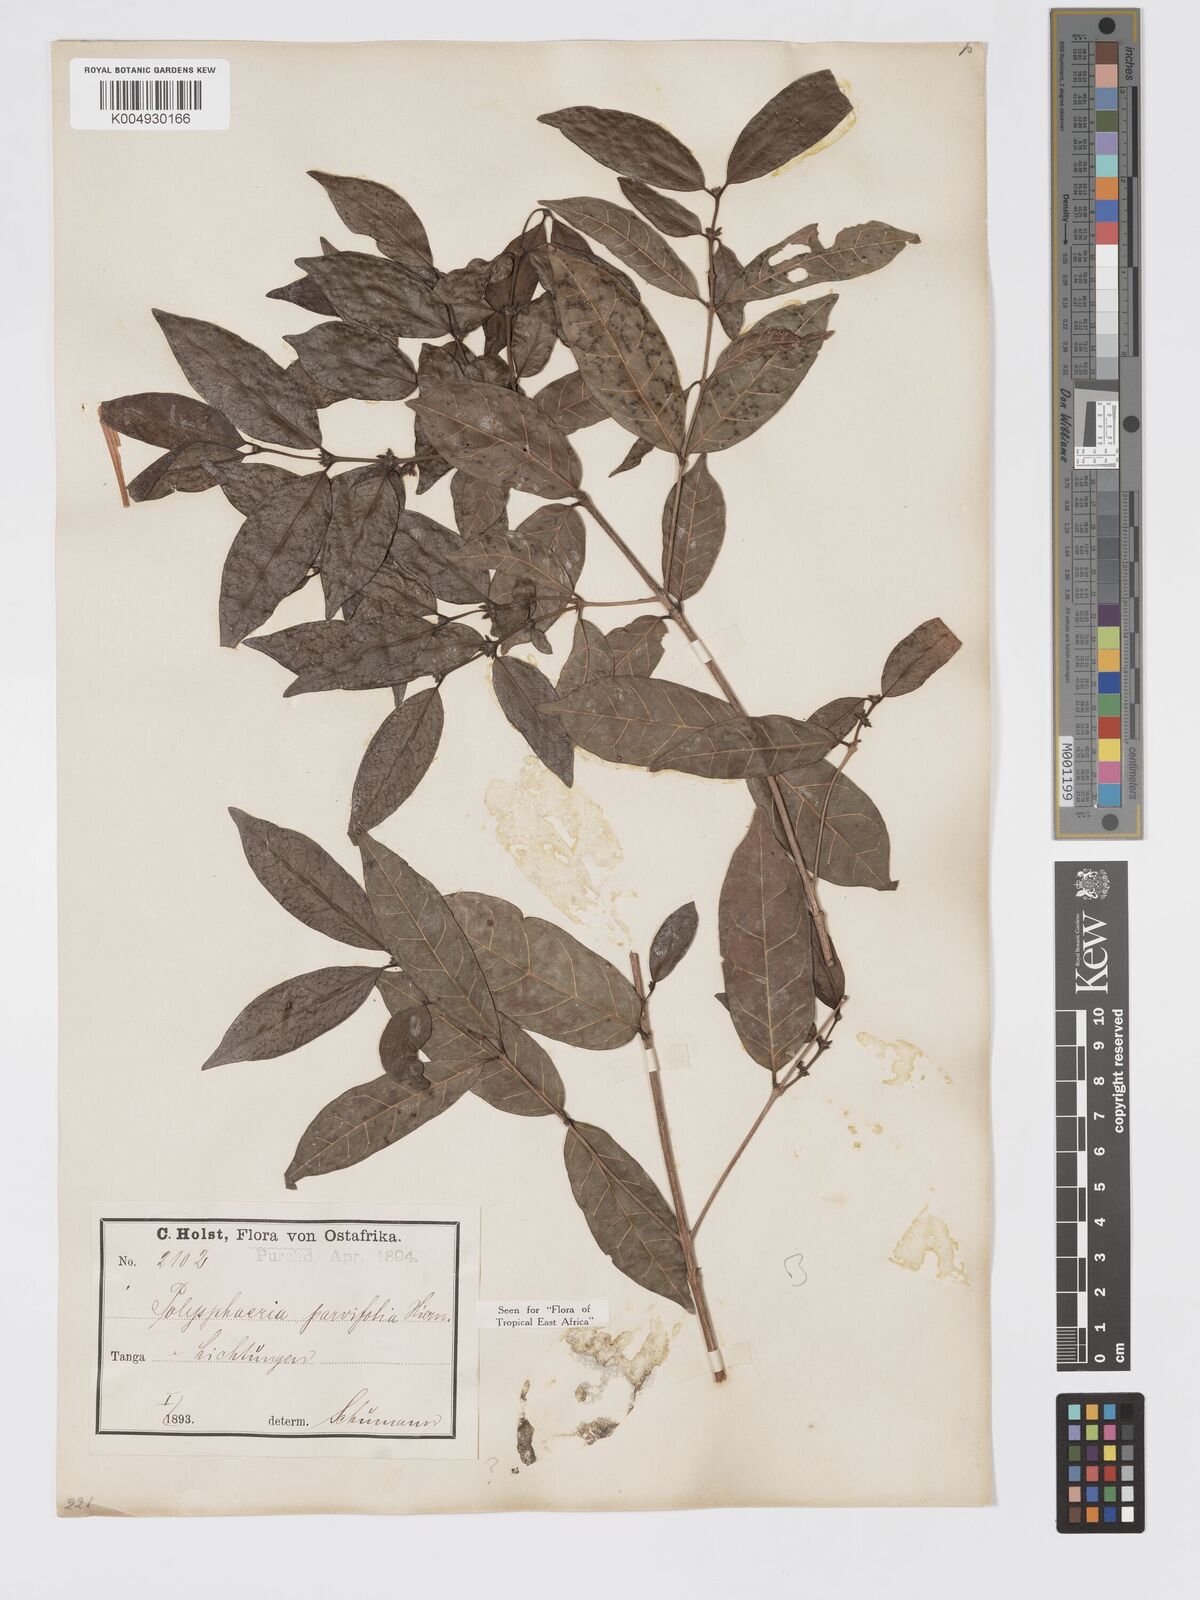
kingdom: Plantae
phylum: Tracheophyta
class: Magnoliopsida
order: Gentianales
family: Rubiaceae
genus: Polysphaeria
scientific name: Polysphaeria parvifolia
